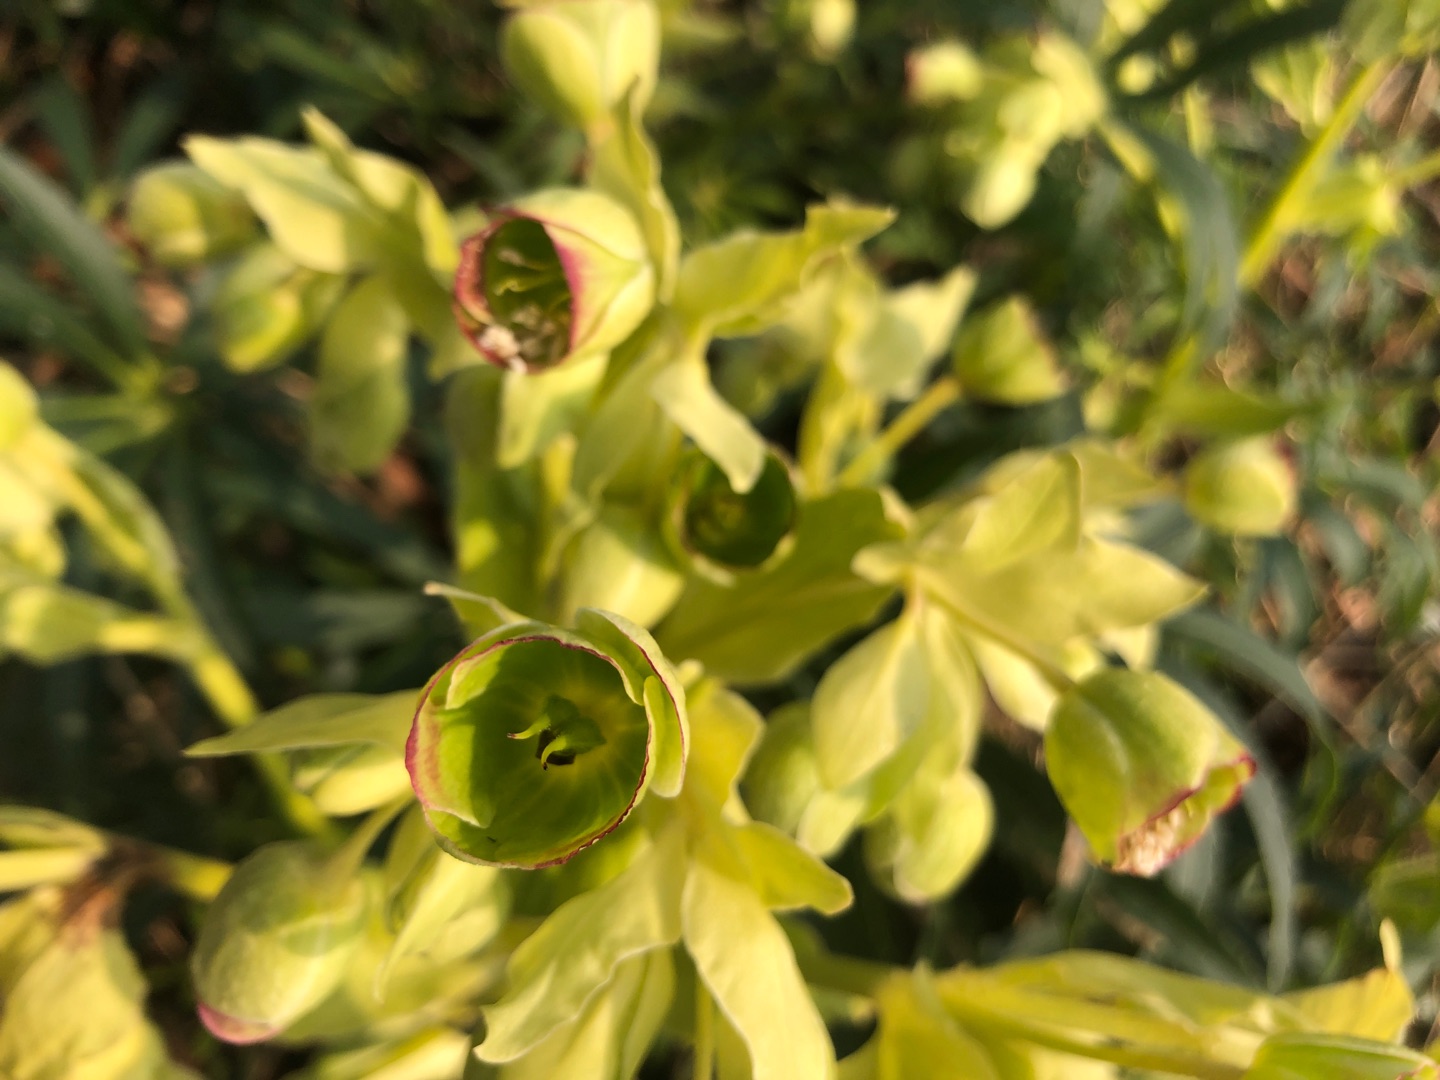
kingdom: Plantae
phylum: Tracheophyta
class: Magnoliopsida
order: Ranunculales
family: Ranunculaceae
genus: Helleborus
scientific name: Helleborus foetidus
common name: Stinkende julerose
